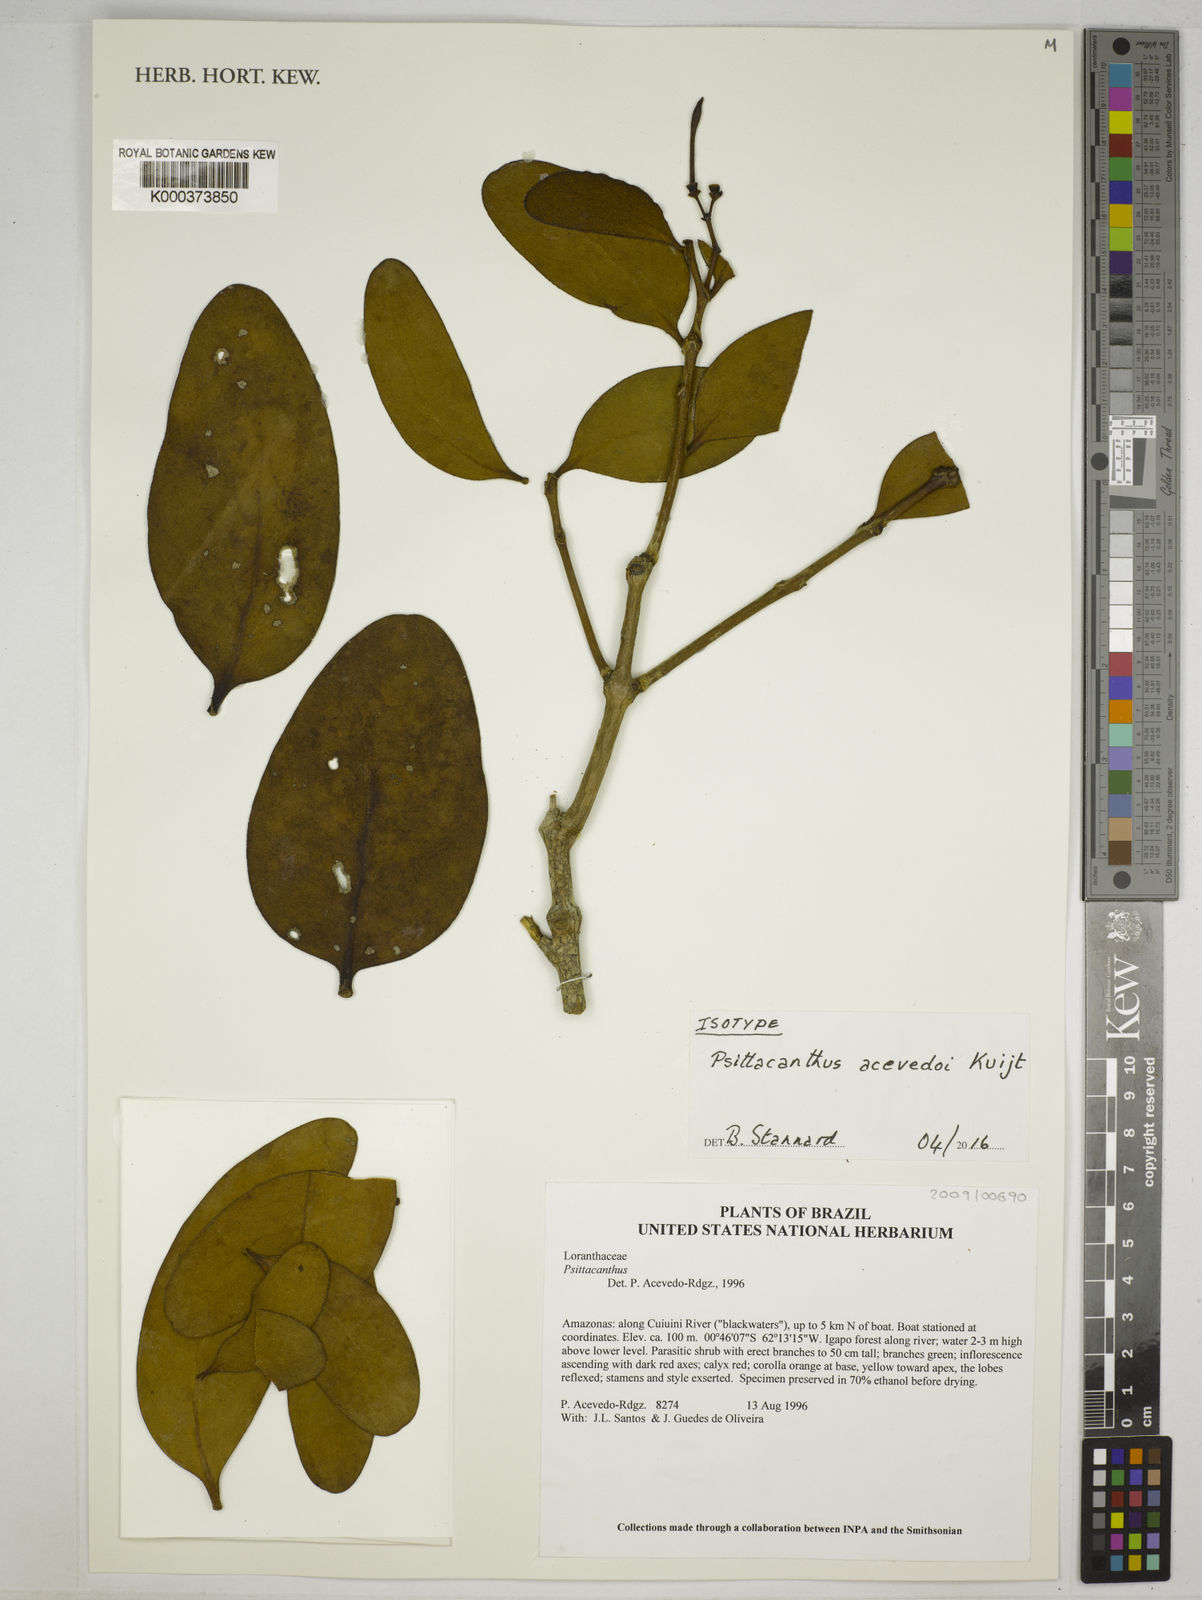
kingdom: Plantae
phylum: Tracheophyta
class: Magnoliopsida
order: Santalales
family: Loranthaceae
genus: Psittacanthus
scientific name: Psittacanthus acevedoi
